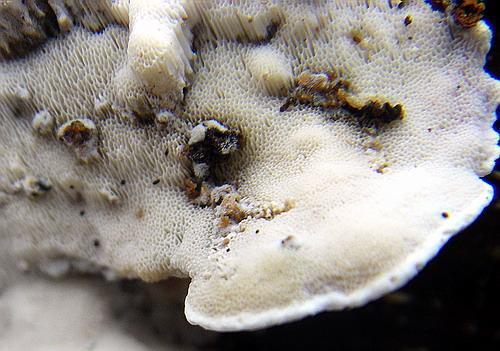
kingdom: Fungi
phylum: Basidiomycota
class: Agaricomycetes
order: Polyporales
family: Incrustoporiaceae
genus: Skeletocutis
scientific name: Skeletocutis nemoralis
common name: stor krystalporesvamp
